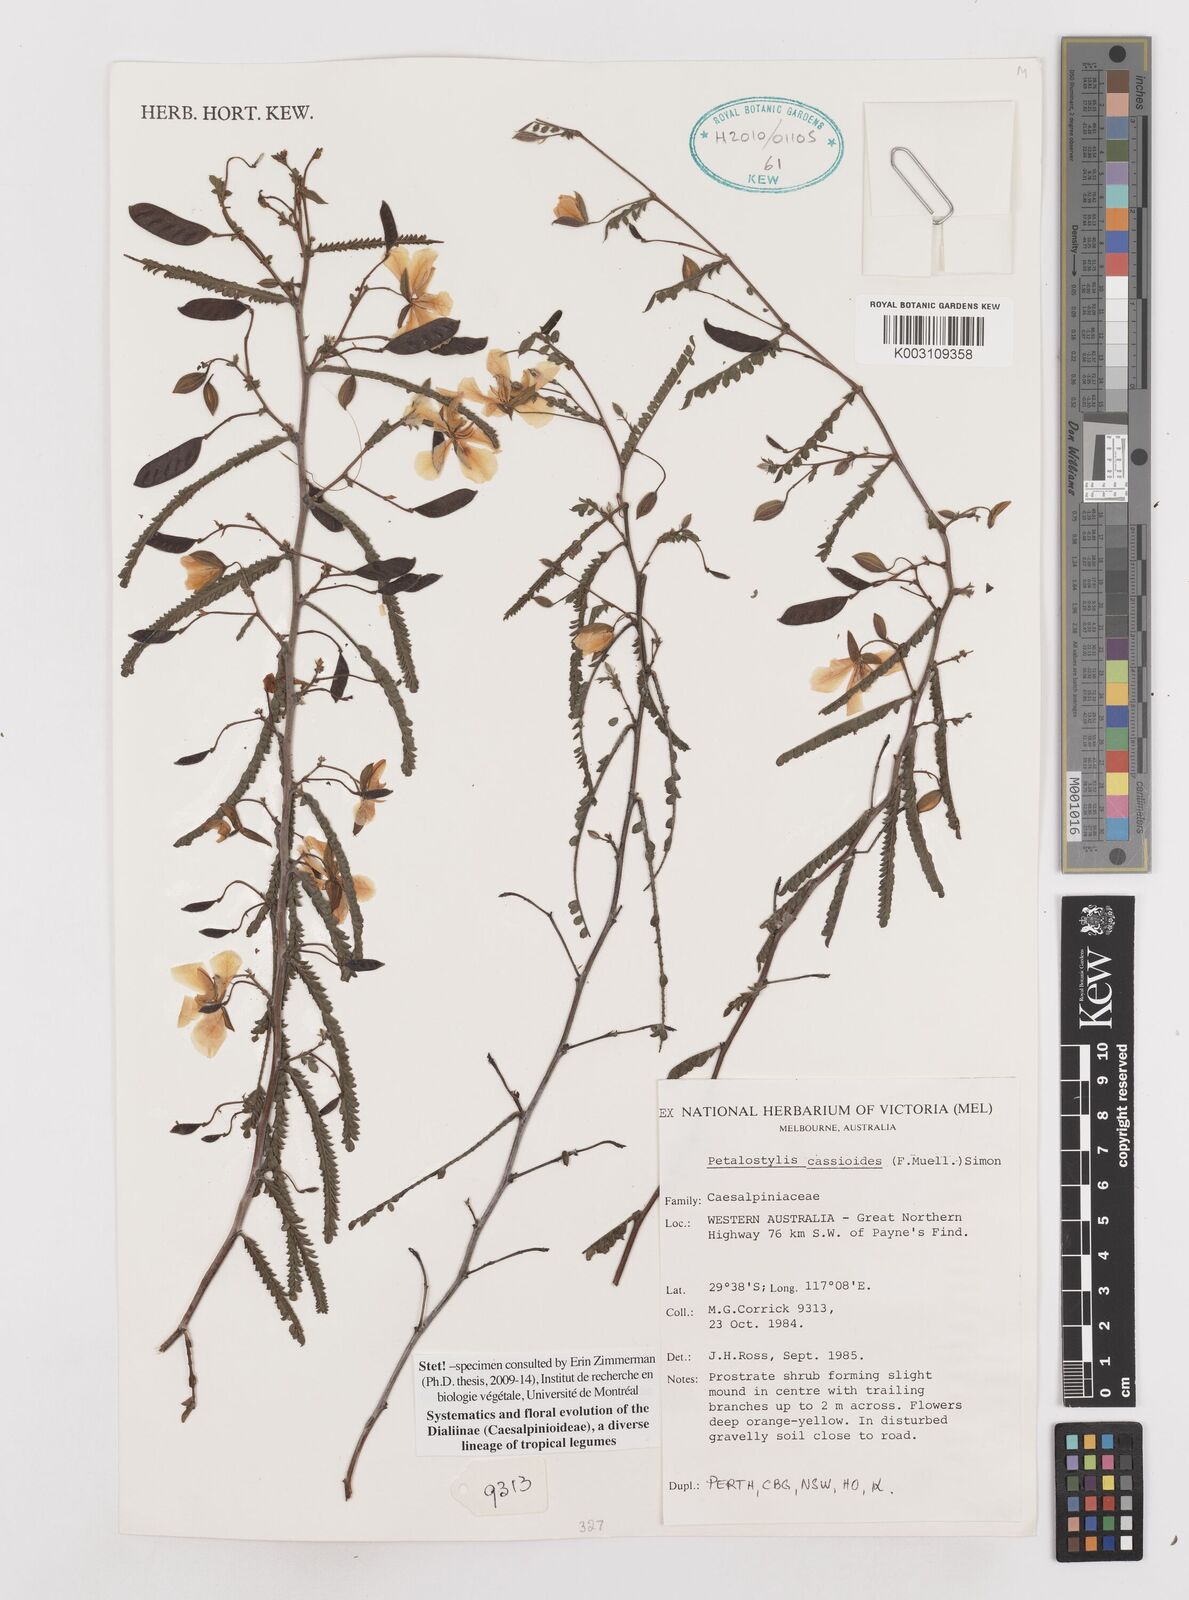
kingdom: Plantae
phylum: Tracheophyta
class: Magnoliopsida
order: Fabales
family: Fabaceae
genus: Petalostylis
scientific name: Petalostylis cassioides
